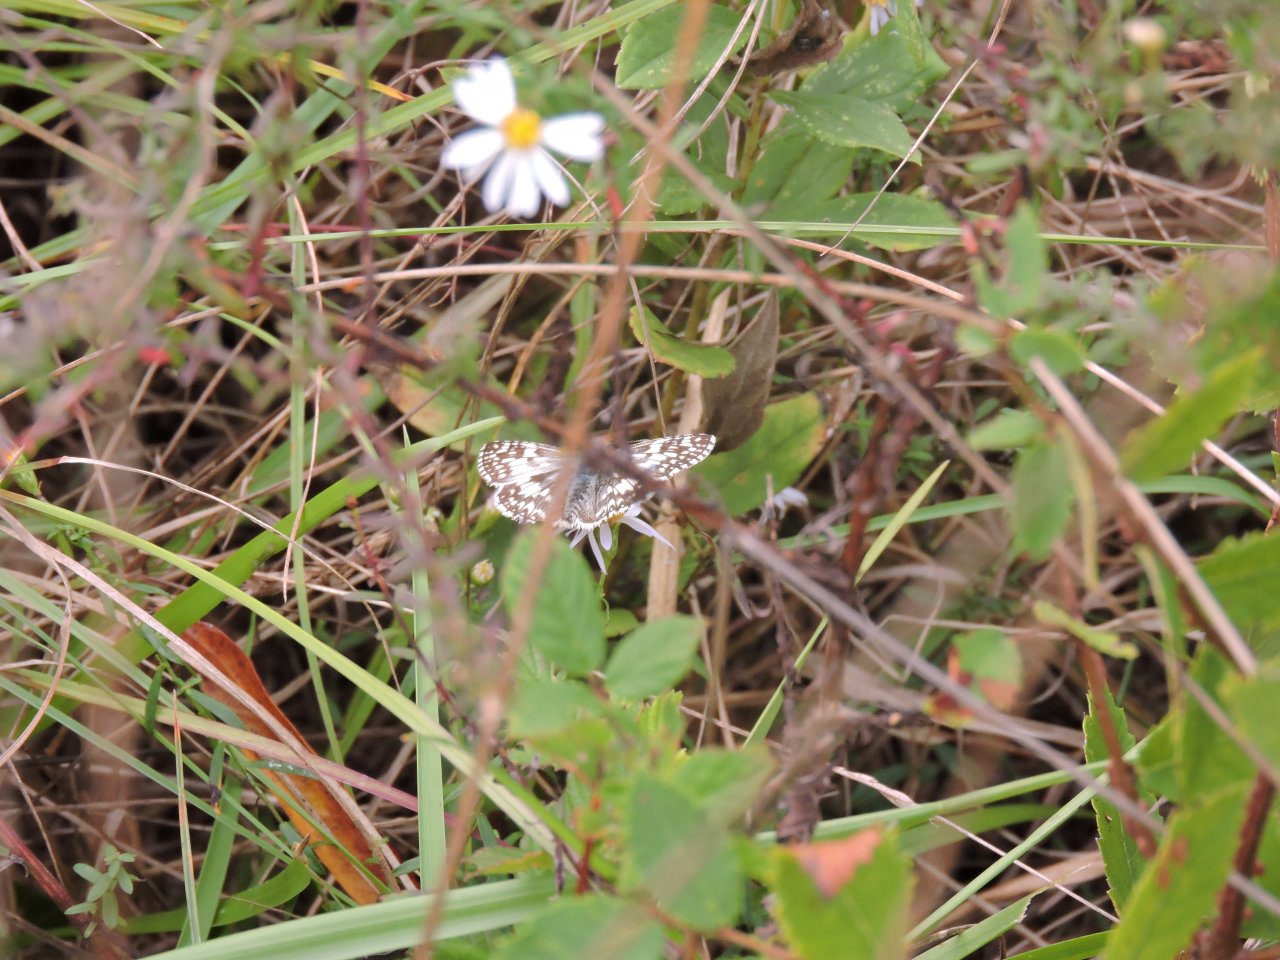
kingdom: Animalia
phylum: Arthropoda
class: Insecta
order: Lepidoptera
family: Hesperiidae
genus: Pyrgus
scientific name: Pyrgus
